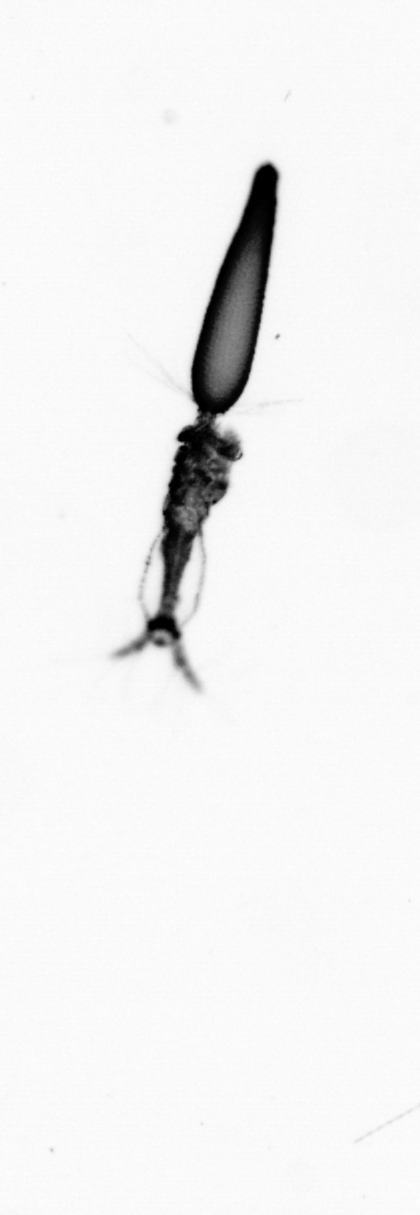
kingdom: Animalia
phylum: Arthropoda
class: Copepoda
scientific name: Copepoda
